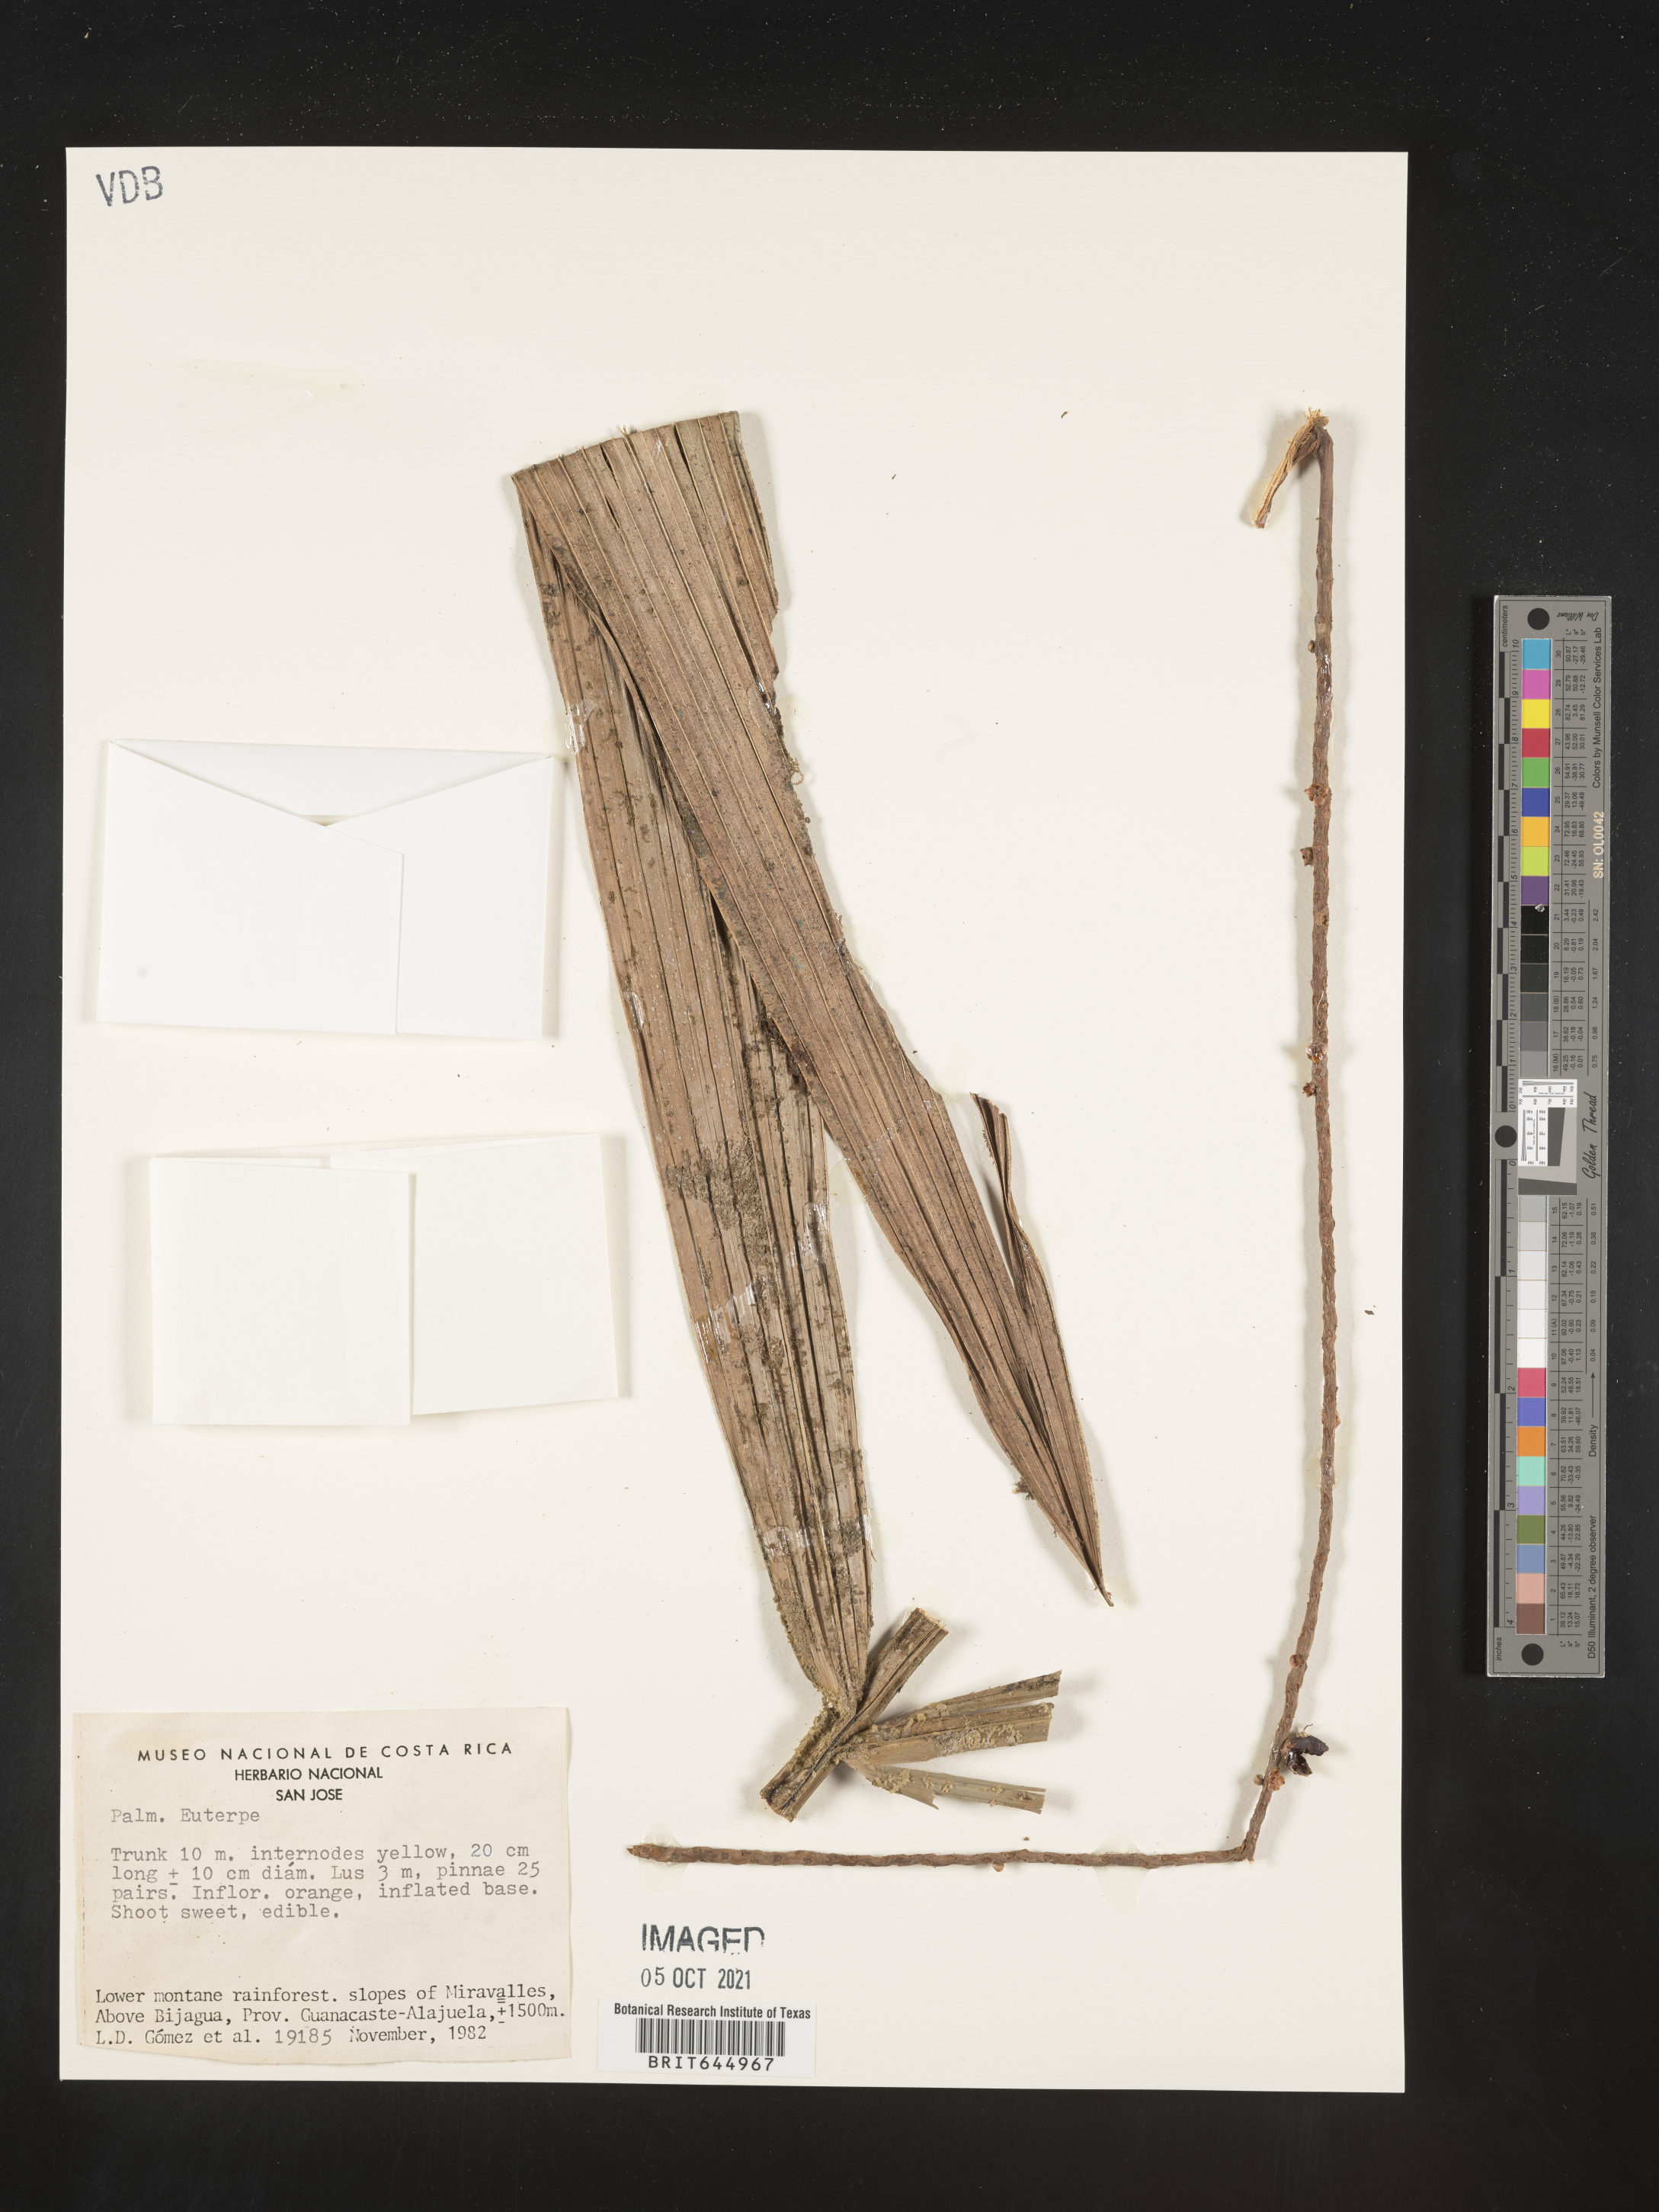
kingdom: Plantae
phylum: Tracheophyta
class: Liliopsida
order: Arecales
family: Arecaceae
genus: Euterpe
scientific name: Euterpe
